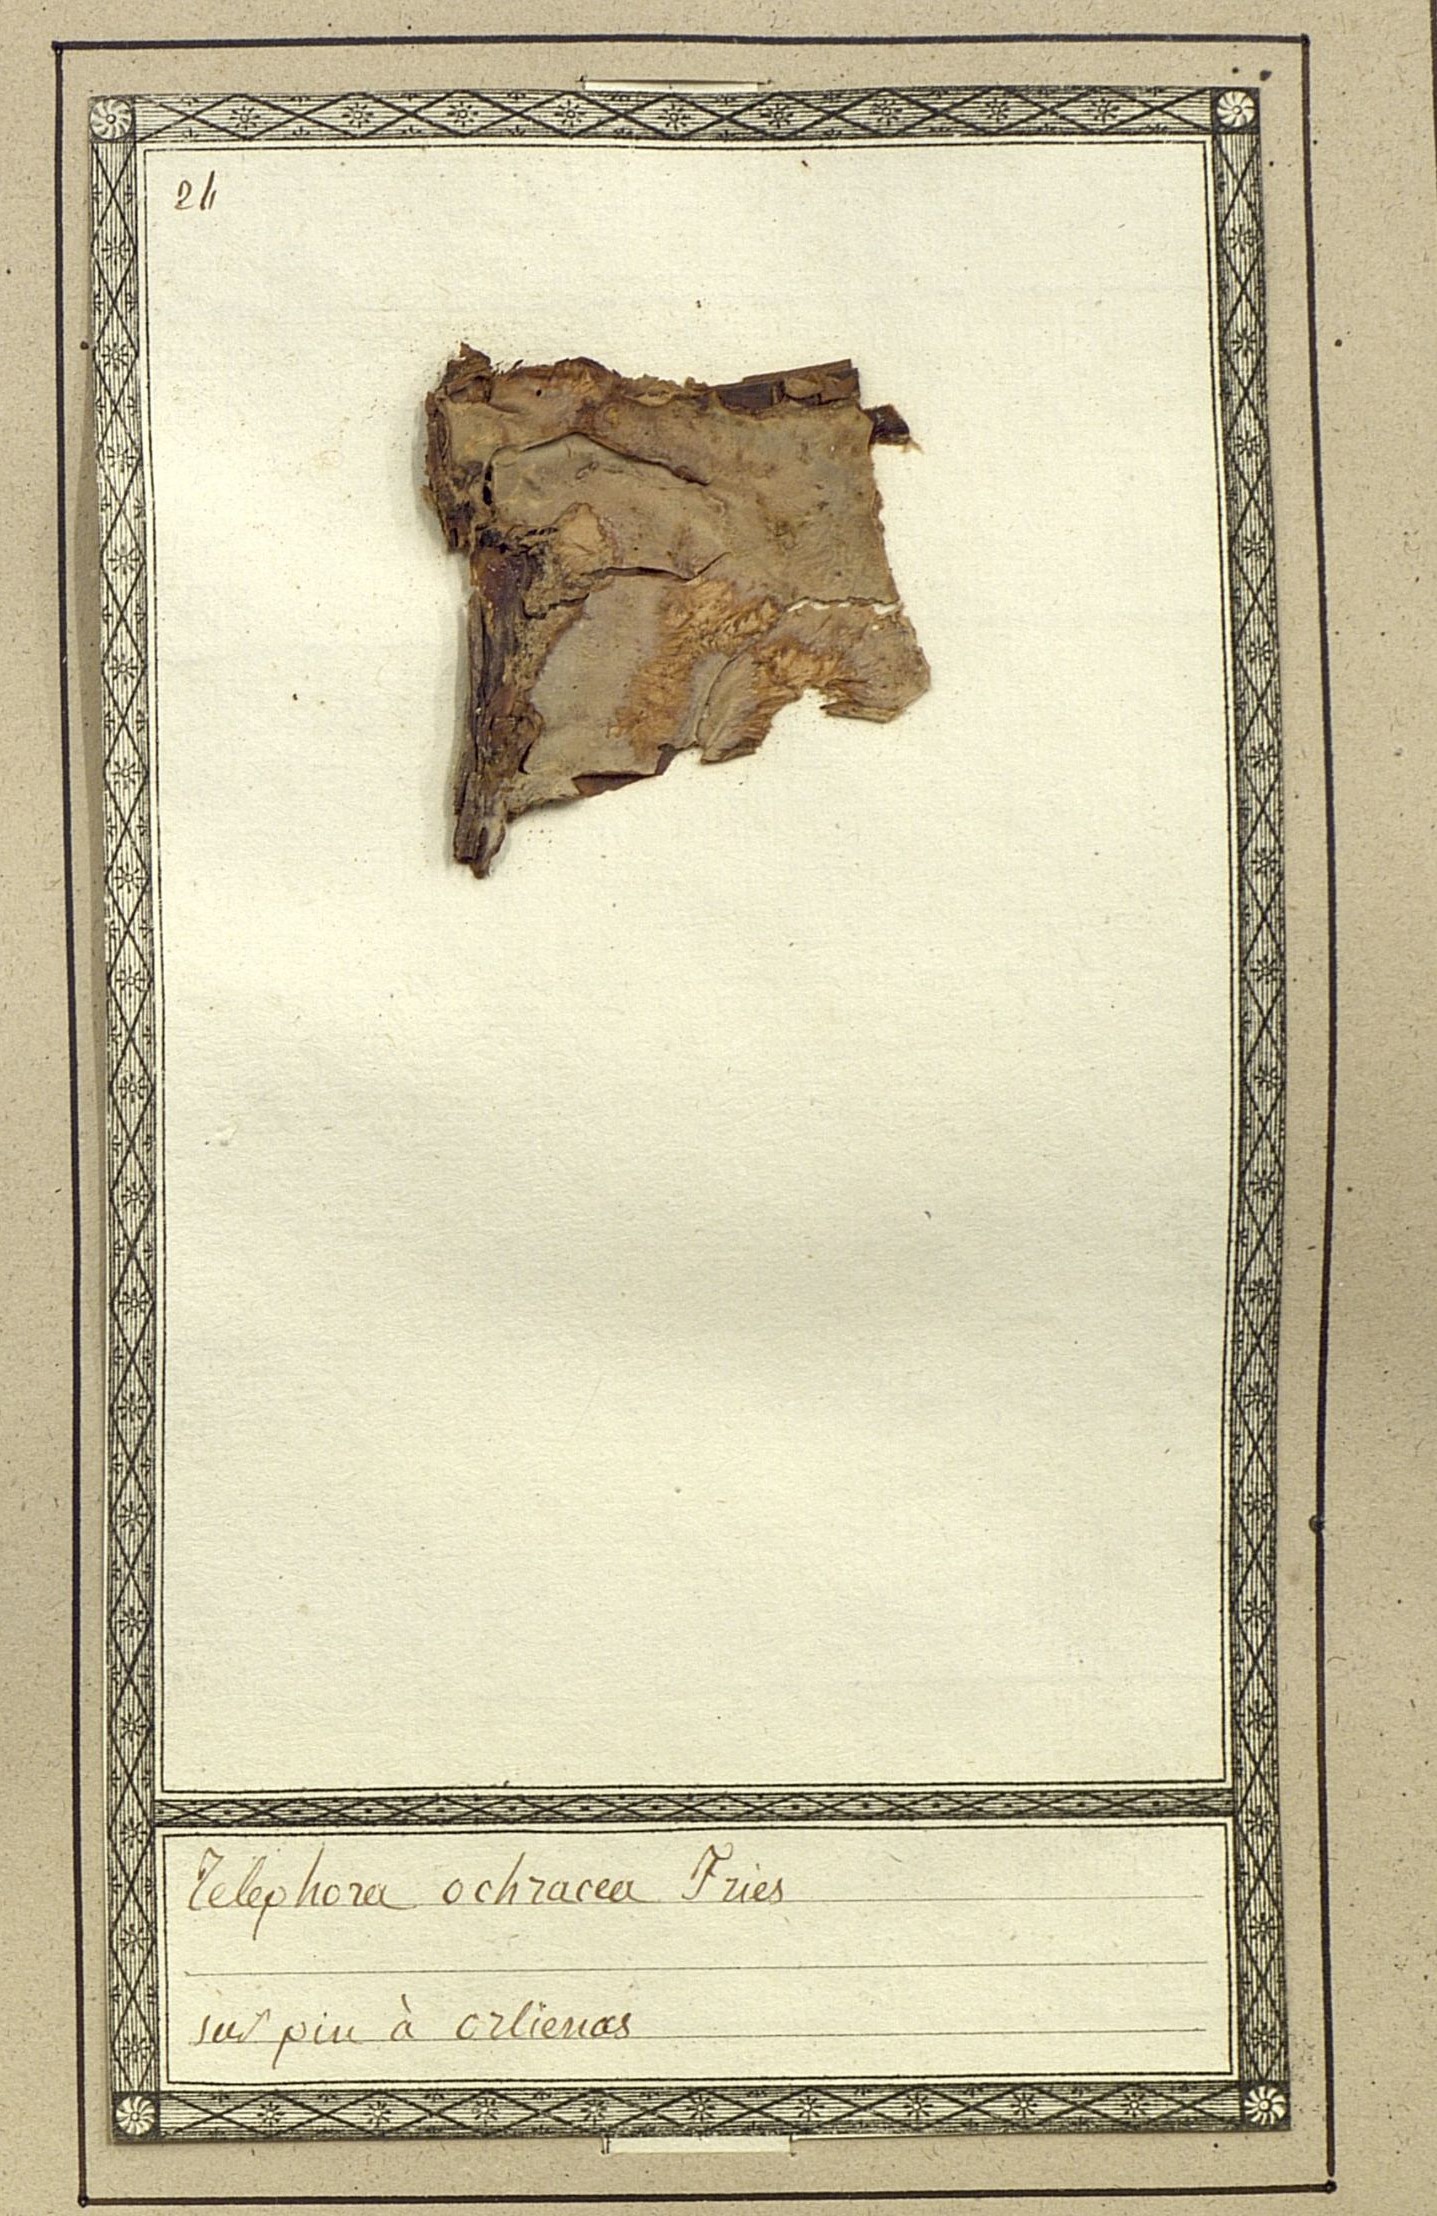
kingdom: Fungi
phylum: Basidiomycota
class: Agaricomycetes
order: Thelephorales
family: Thelephoraceae
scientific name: Thelephoraceae
